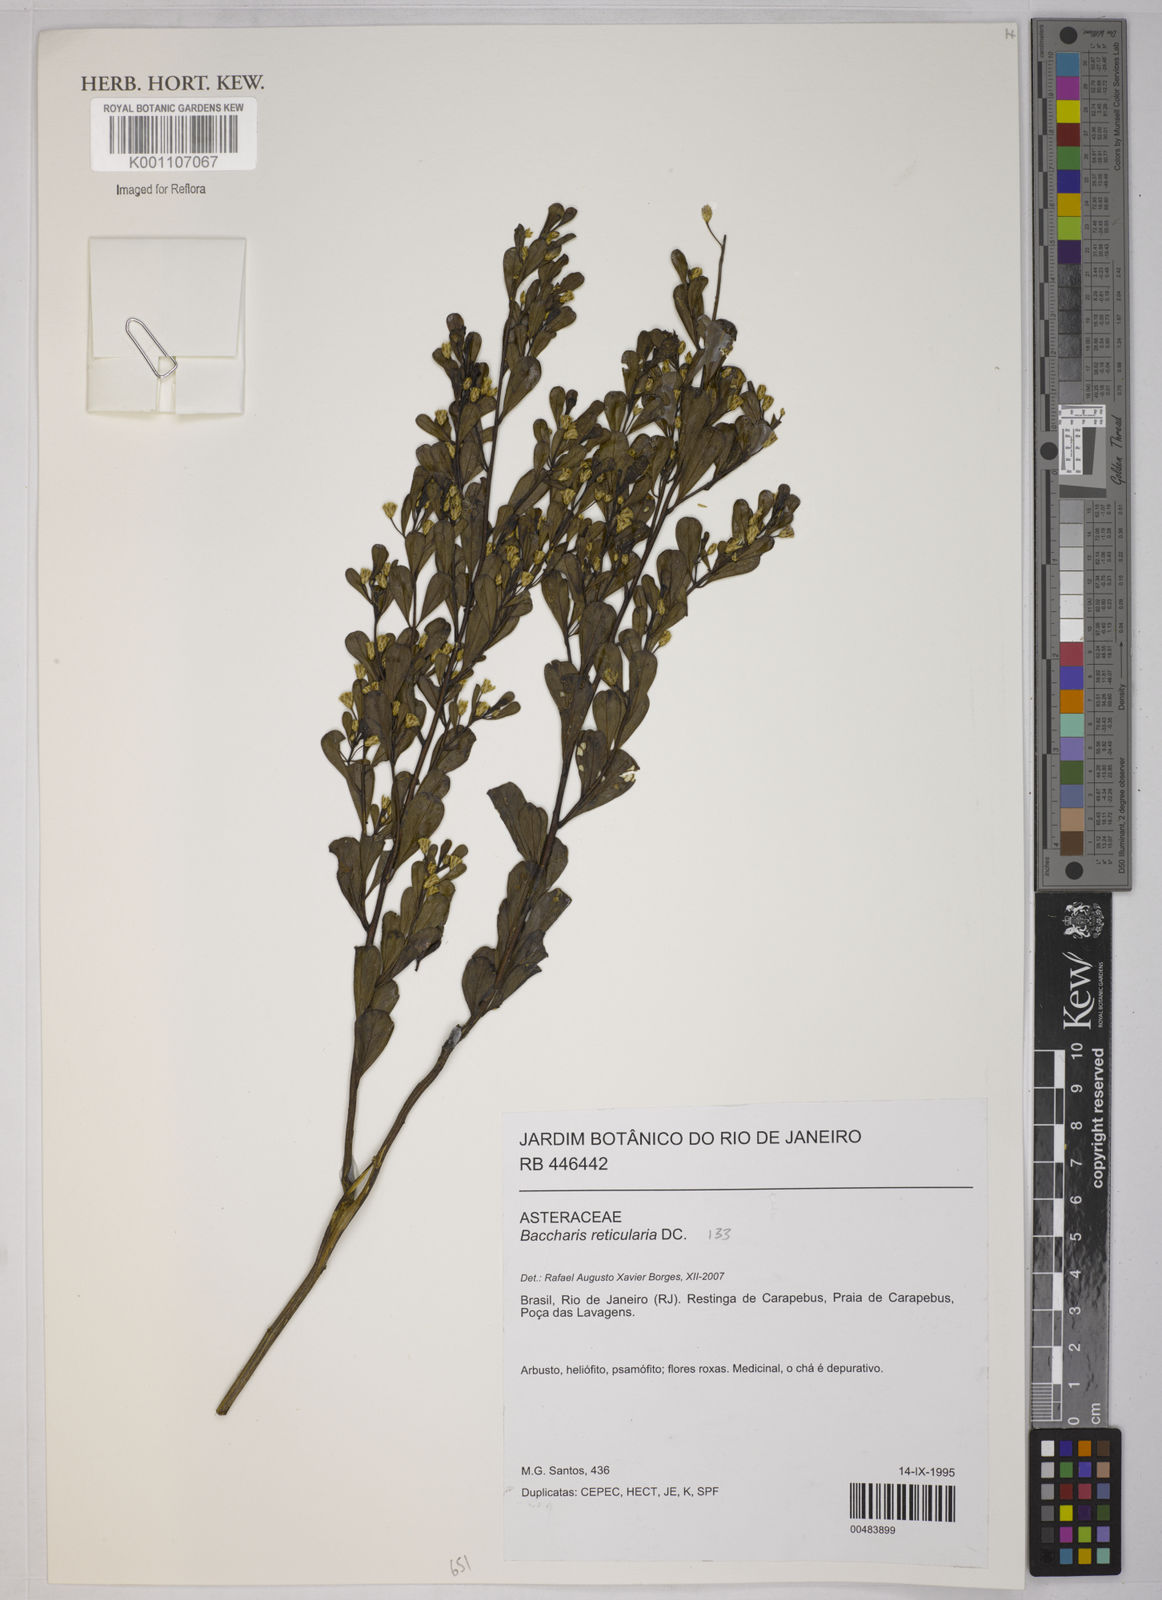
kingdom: Plantae
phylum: Tracheophyta
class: Magnoliopsida
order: Asterales
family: Asteraceae
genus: Baccharis
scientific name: Baccharis reticularia
